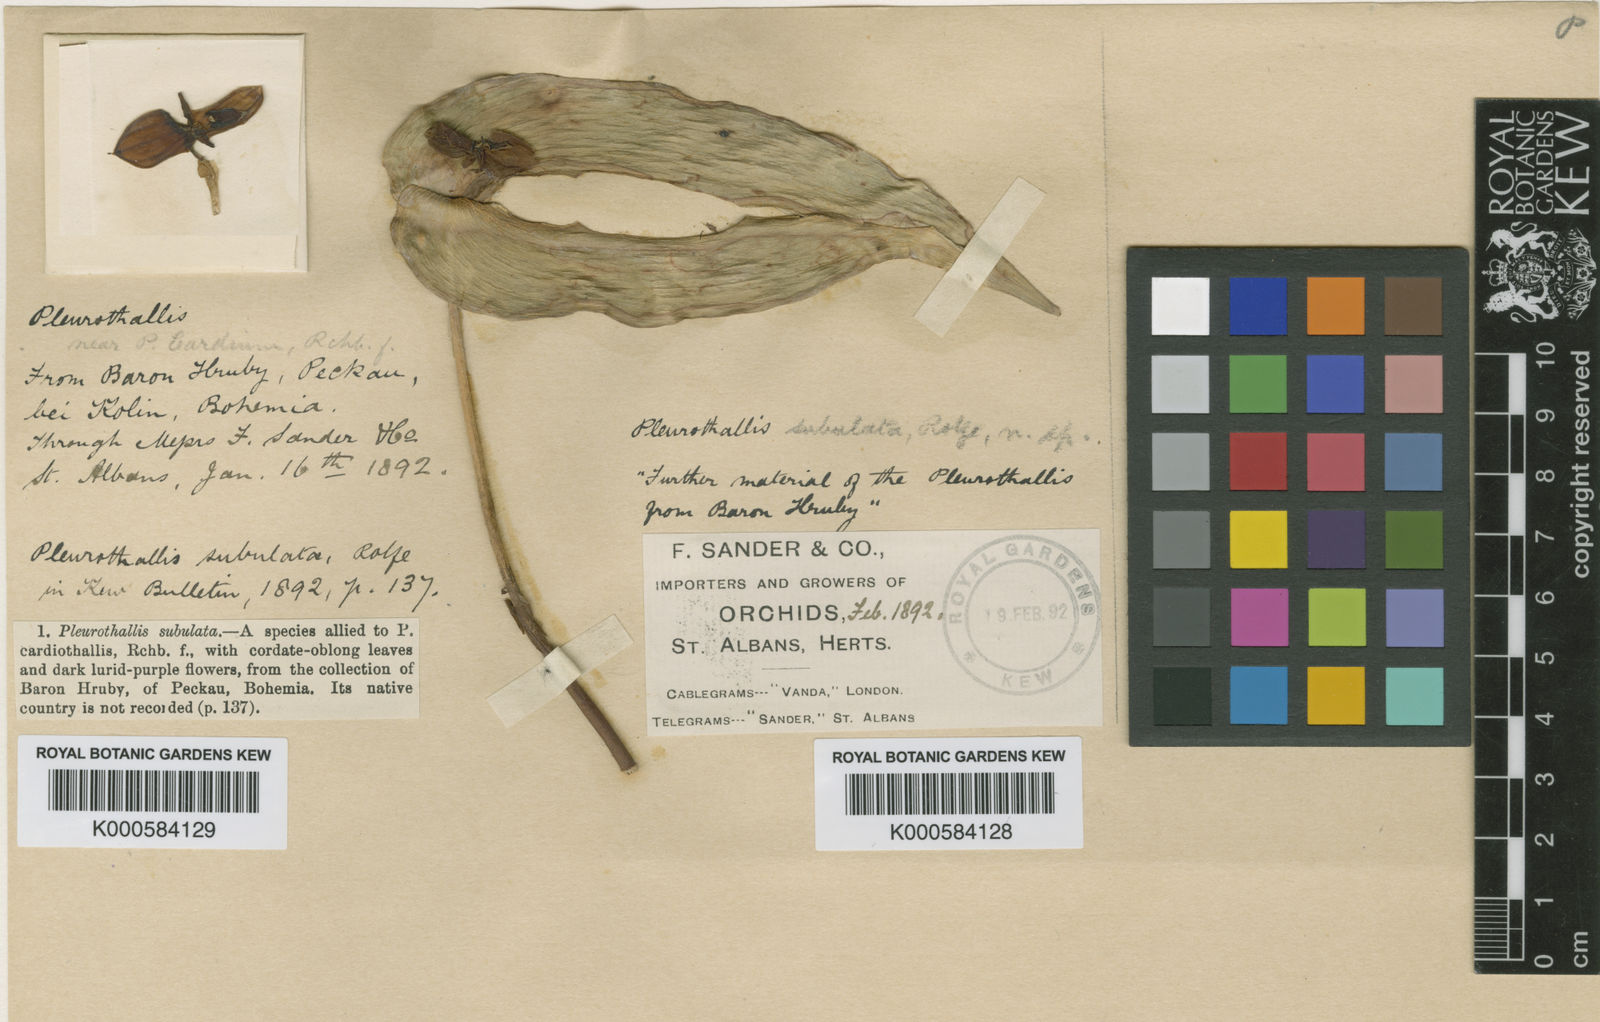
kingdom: Plantae
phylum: Tracheophyta
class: Liliopsida
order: Asparagales
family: Orchidaceae
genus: Pleurothallis
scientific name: Pleurothallis cardiothallis
